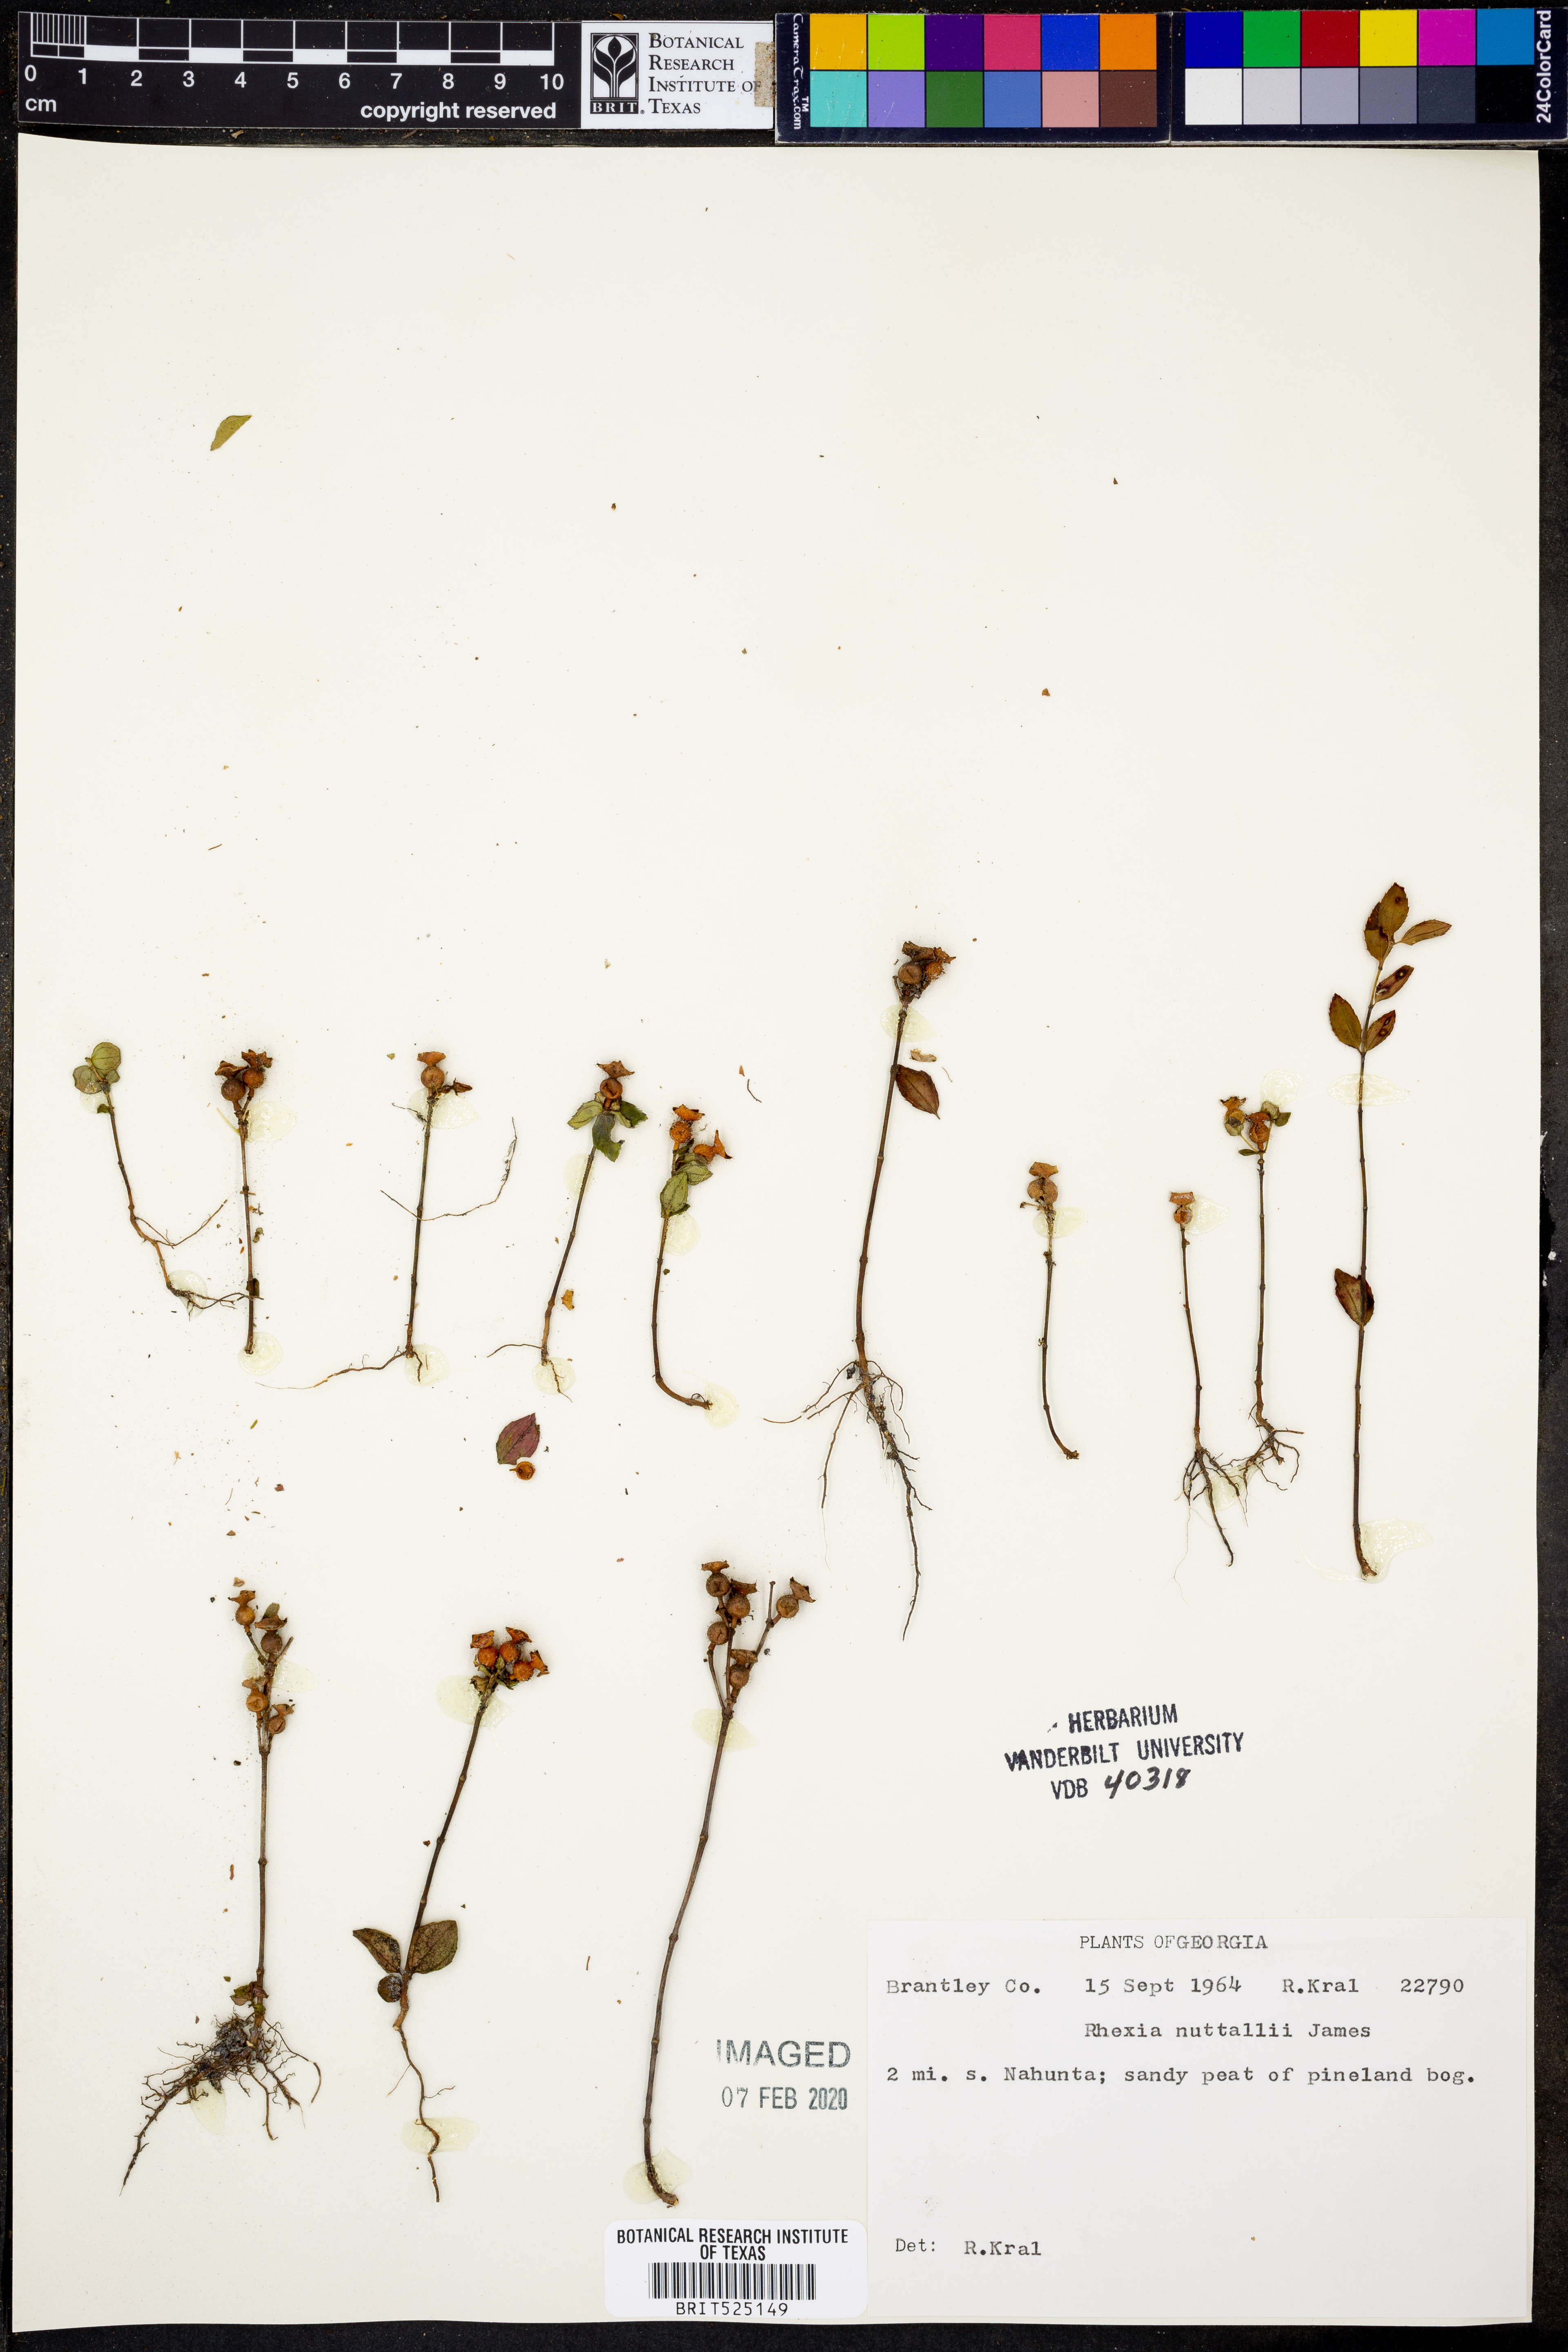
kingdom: Plantae
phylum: Tracheophyta
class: Magnoliopsida
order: Myrtales
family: Melastomataceae
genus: Rhexia
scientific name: Rhexia nuttallii
